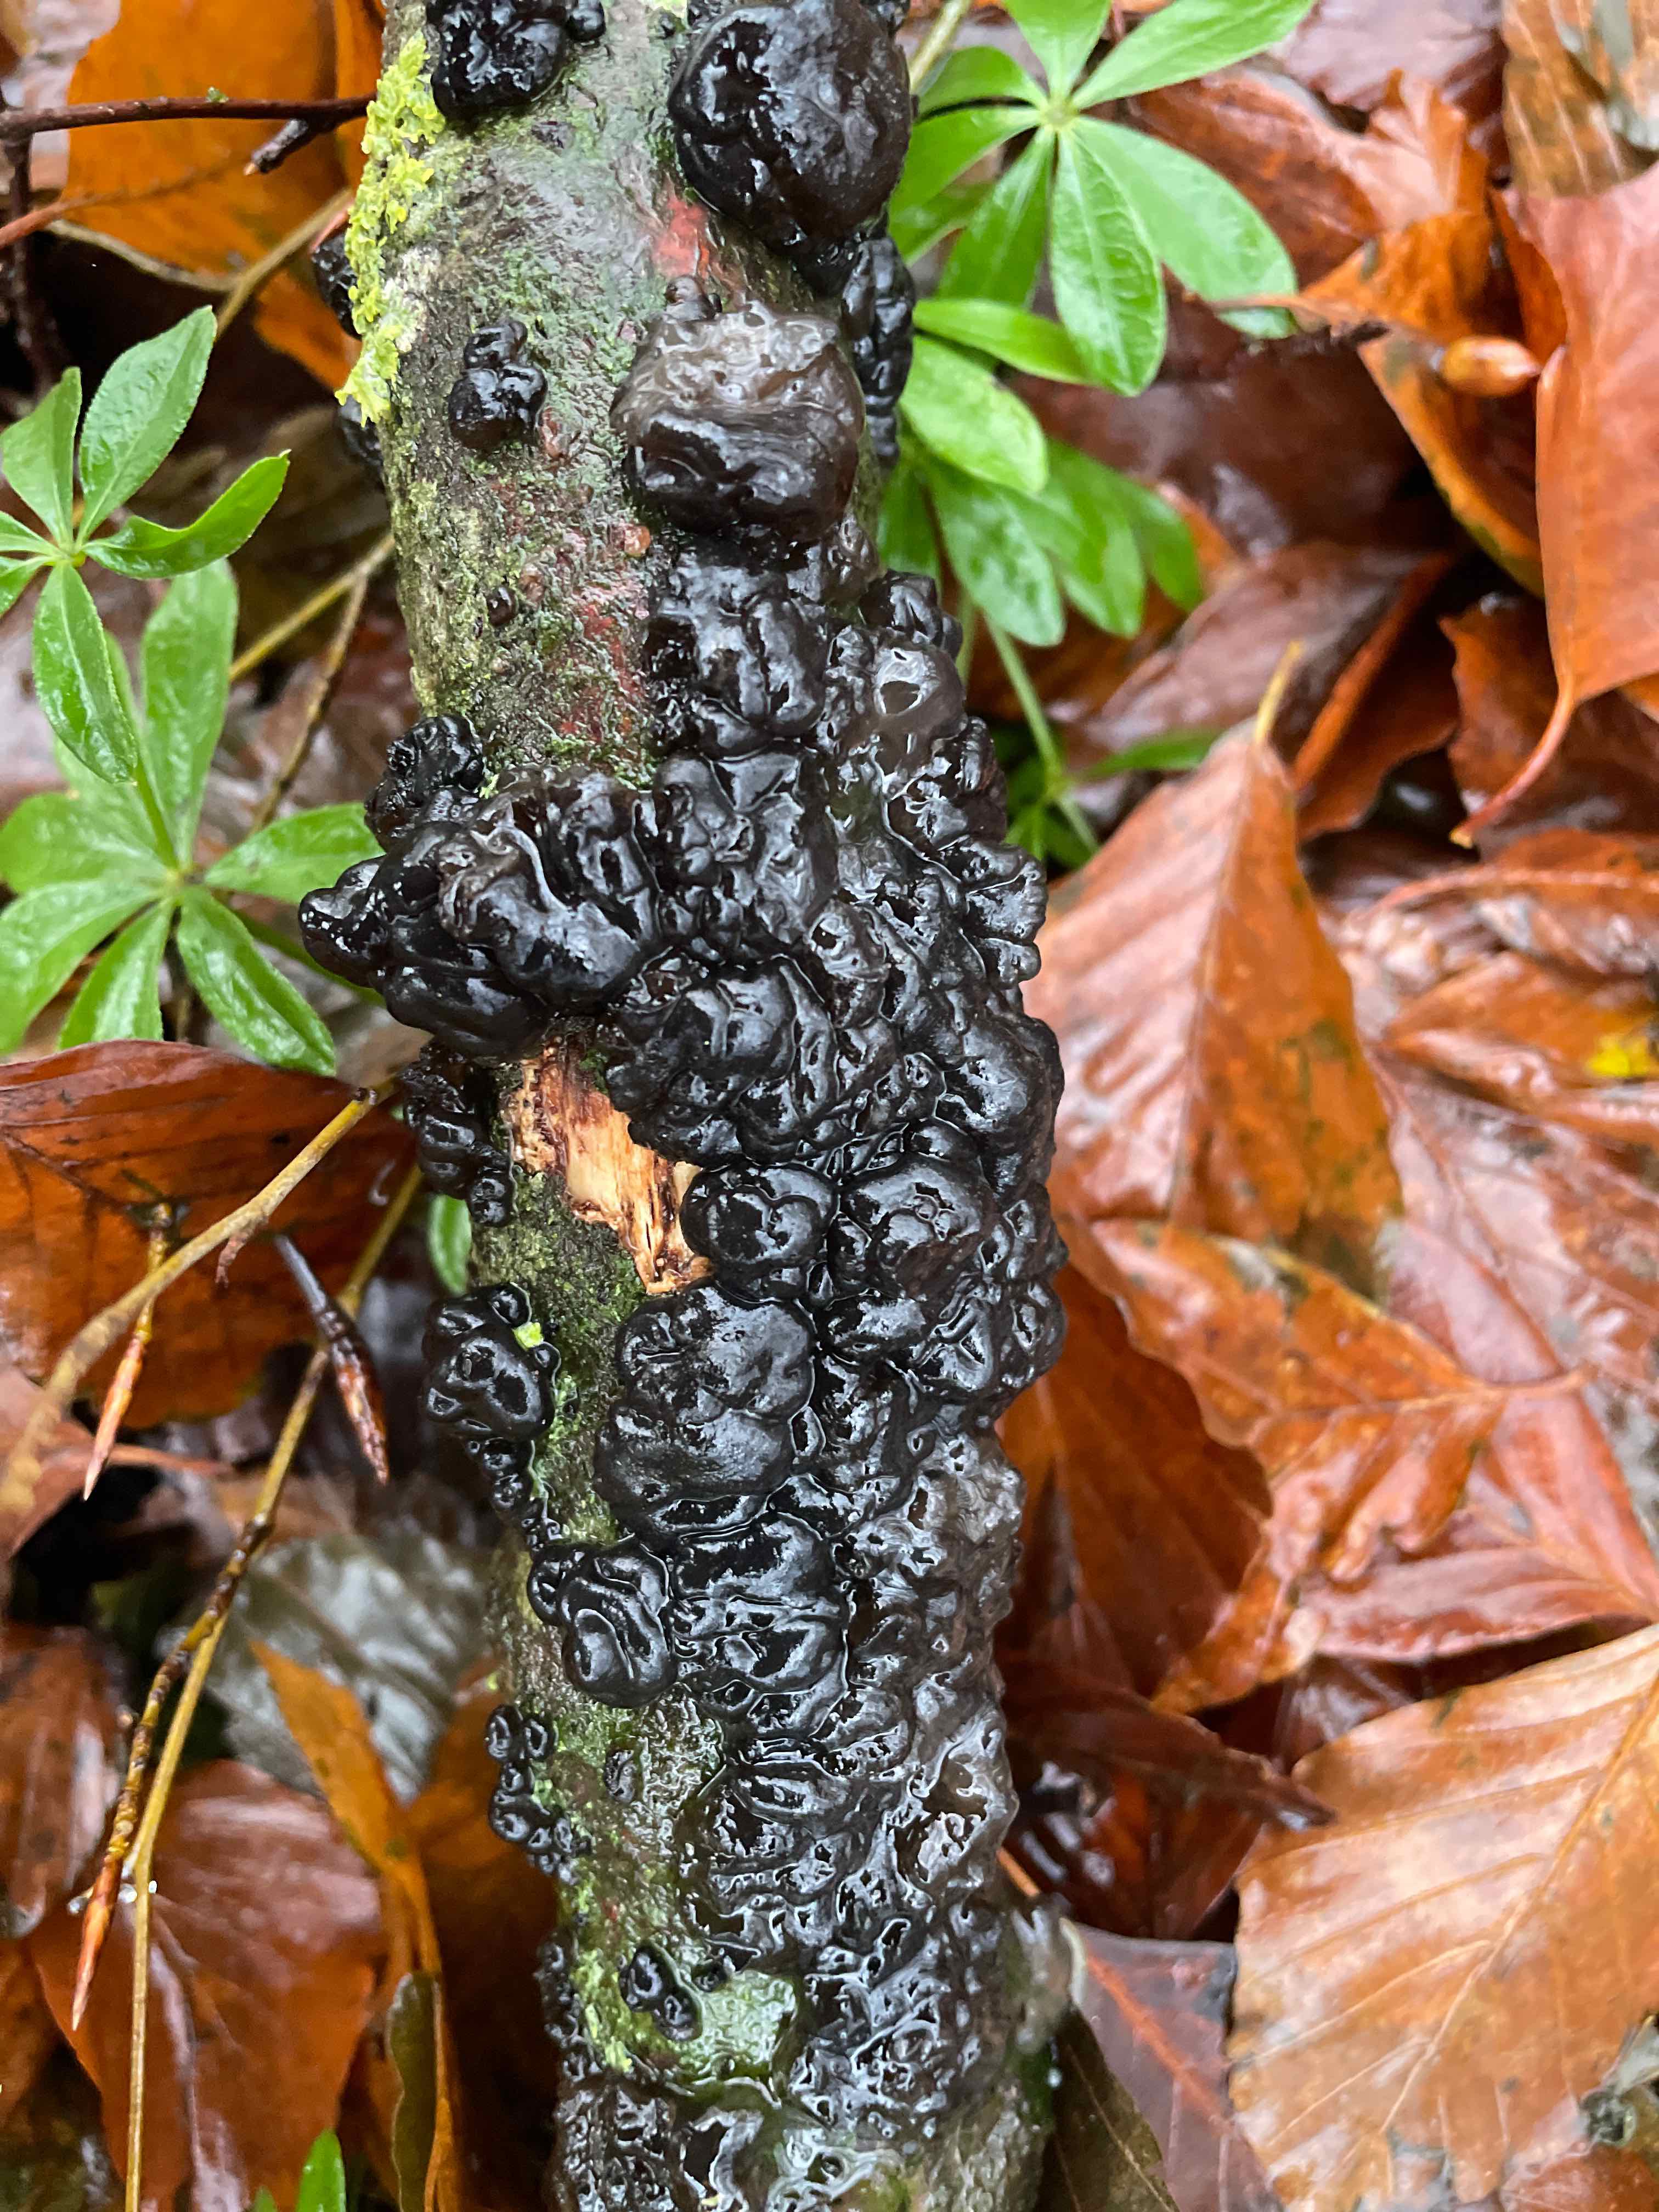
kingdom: Fungi
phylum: Basidiomycota
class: Agaricomycetes
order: Auriculariales
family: Auriculariaceae
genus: Exidia
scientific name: Exidia nigricans
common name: almindelig bævretop
